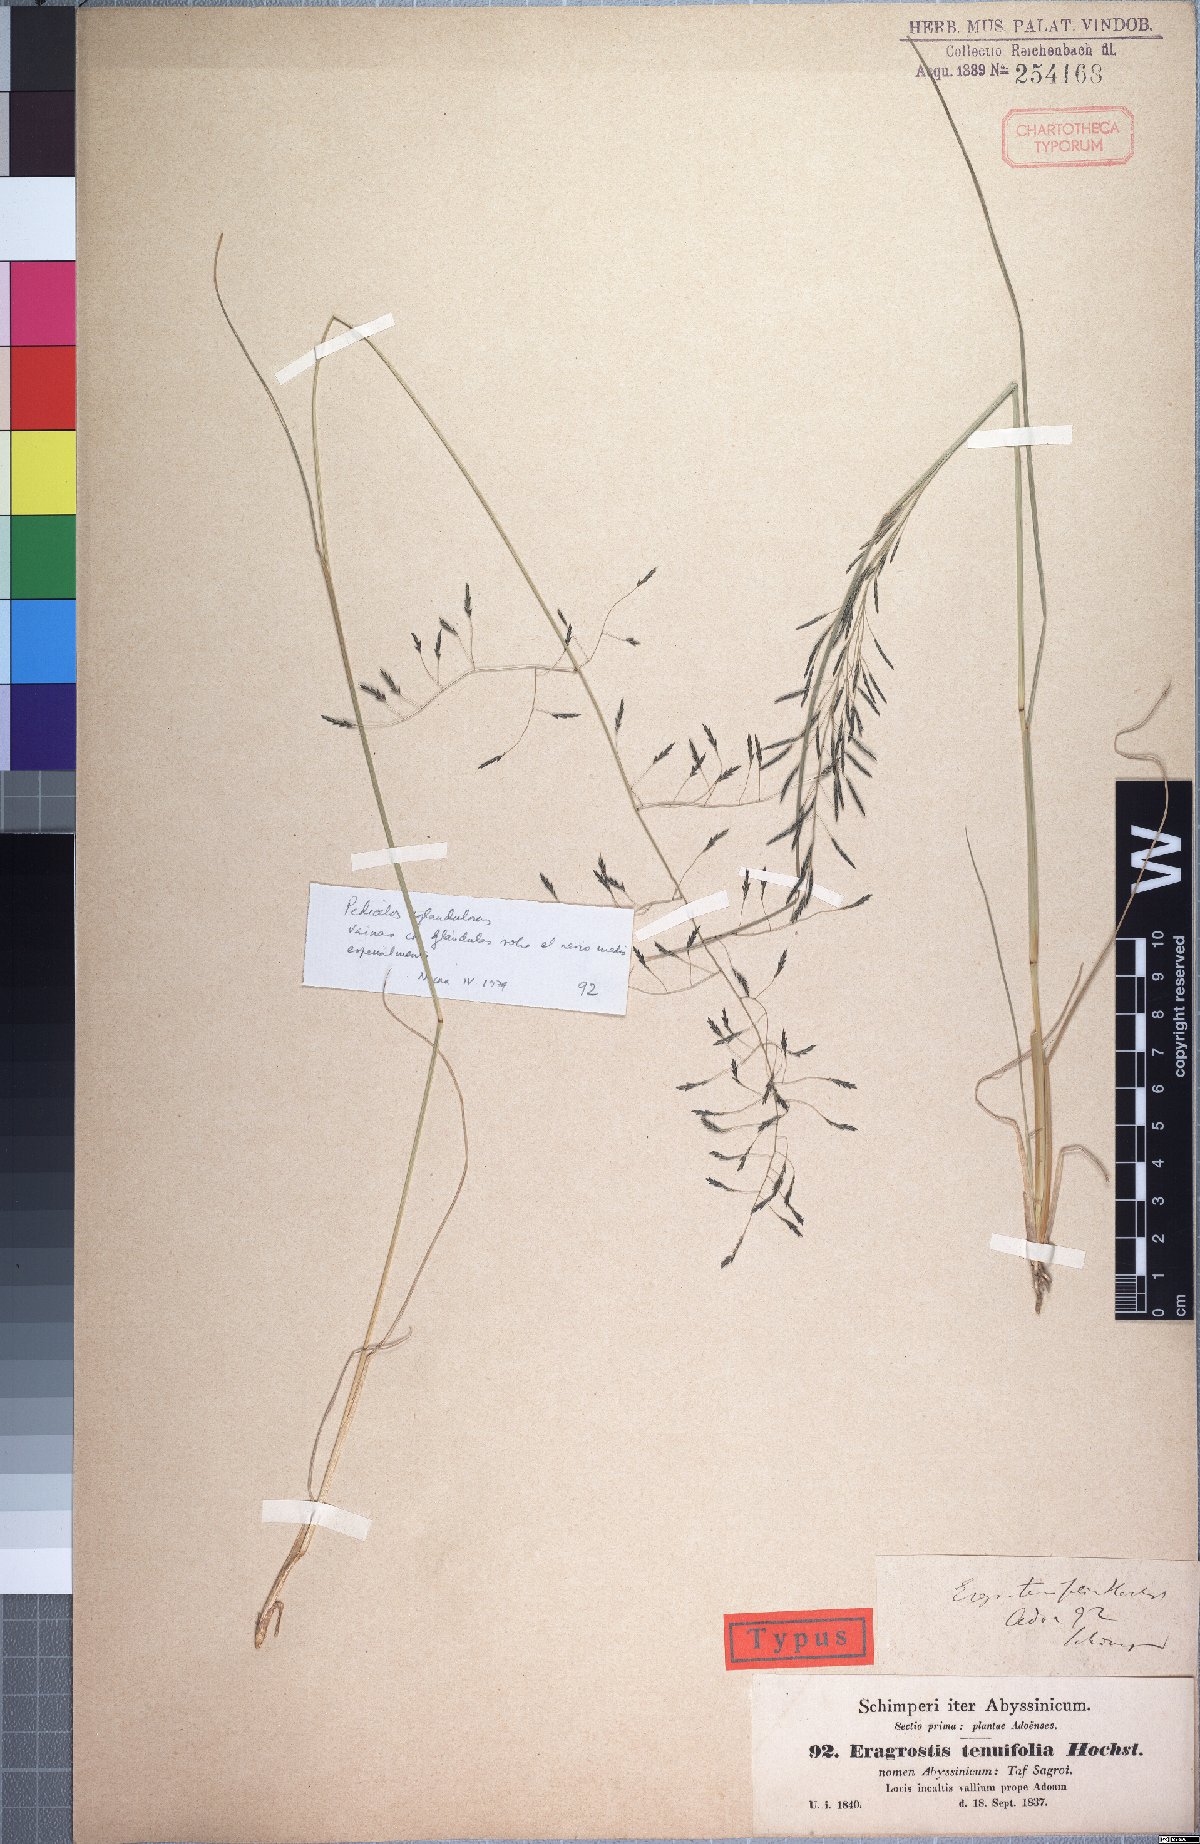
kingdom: Plantae
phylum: Tracheophyta
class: Liliopsida
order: Poales
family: Poaceae
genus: Eragrostis
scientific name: Eragrostis tenuifolia
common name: Elastic grass
